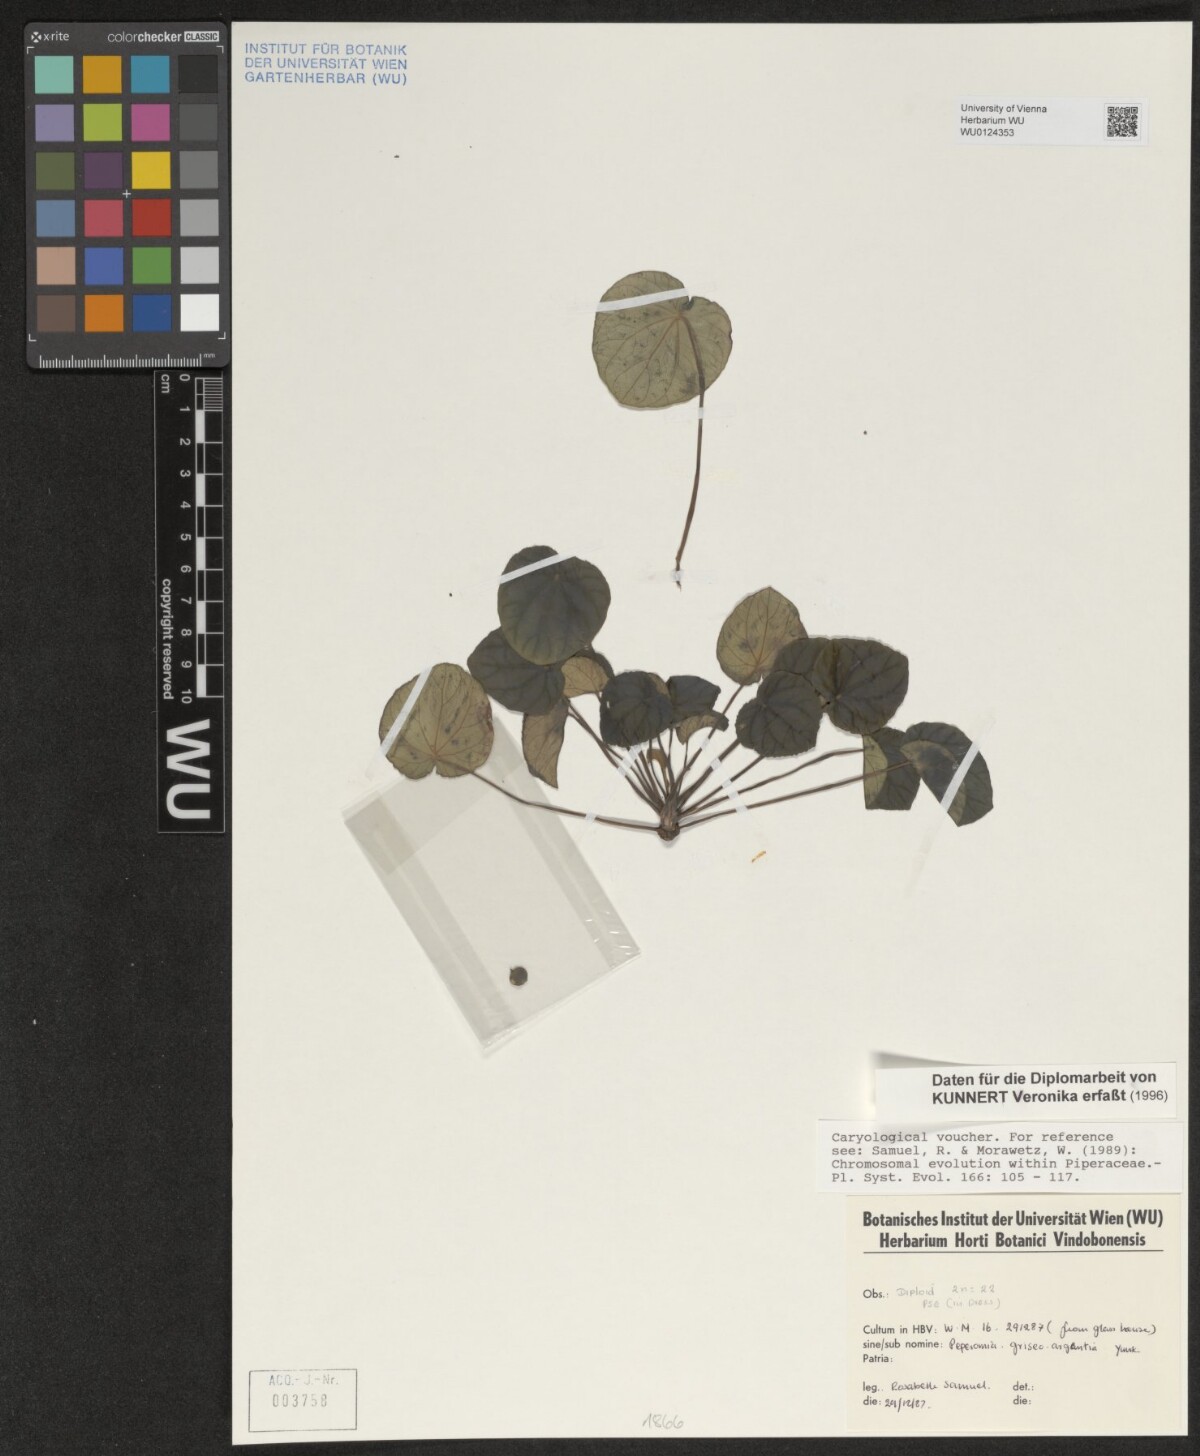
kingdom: Plantae
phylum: Tracheophyta
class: Magnoliopsida
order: Piperales
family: Piperaceae
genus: Peperomia
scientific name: Peperomia griseoargentea
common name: Platinum pepper
